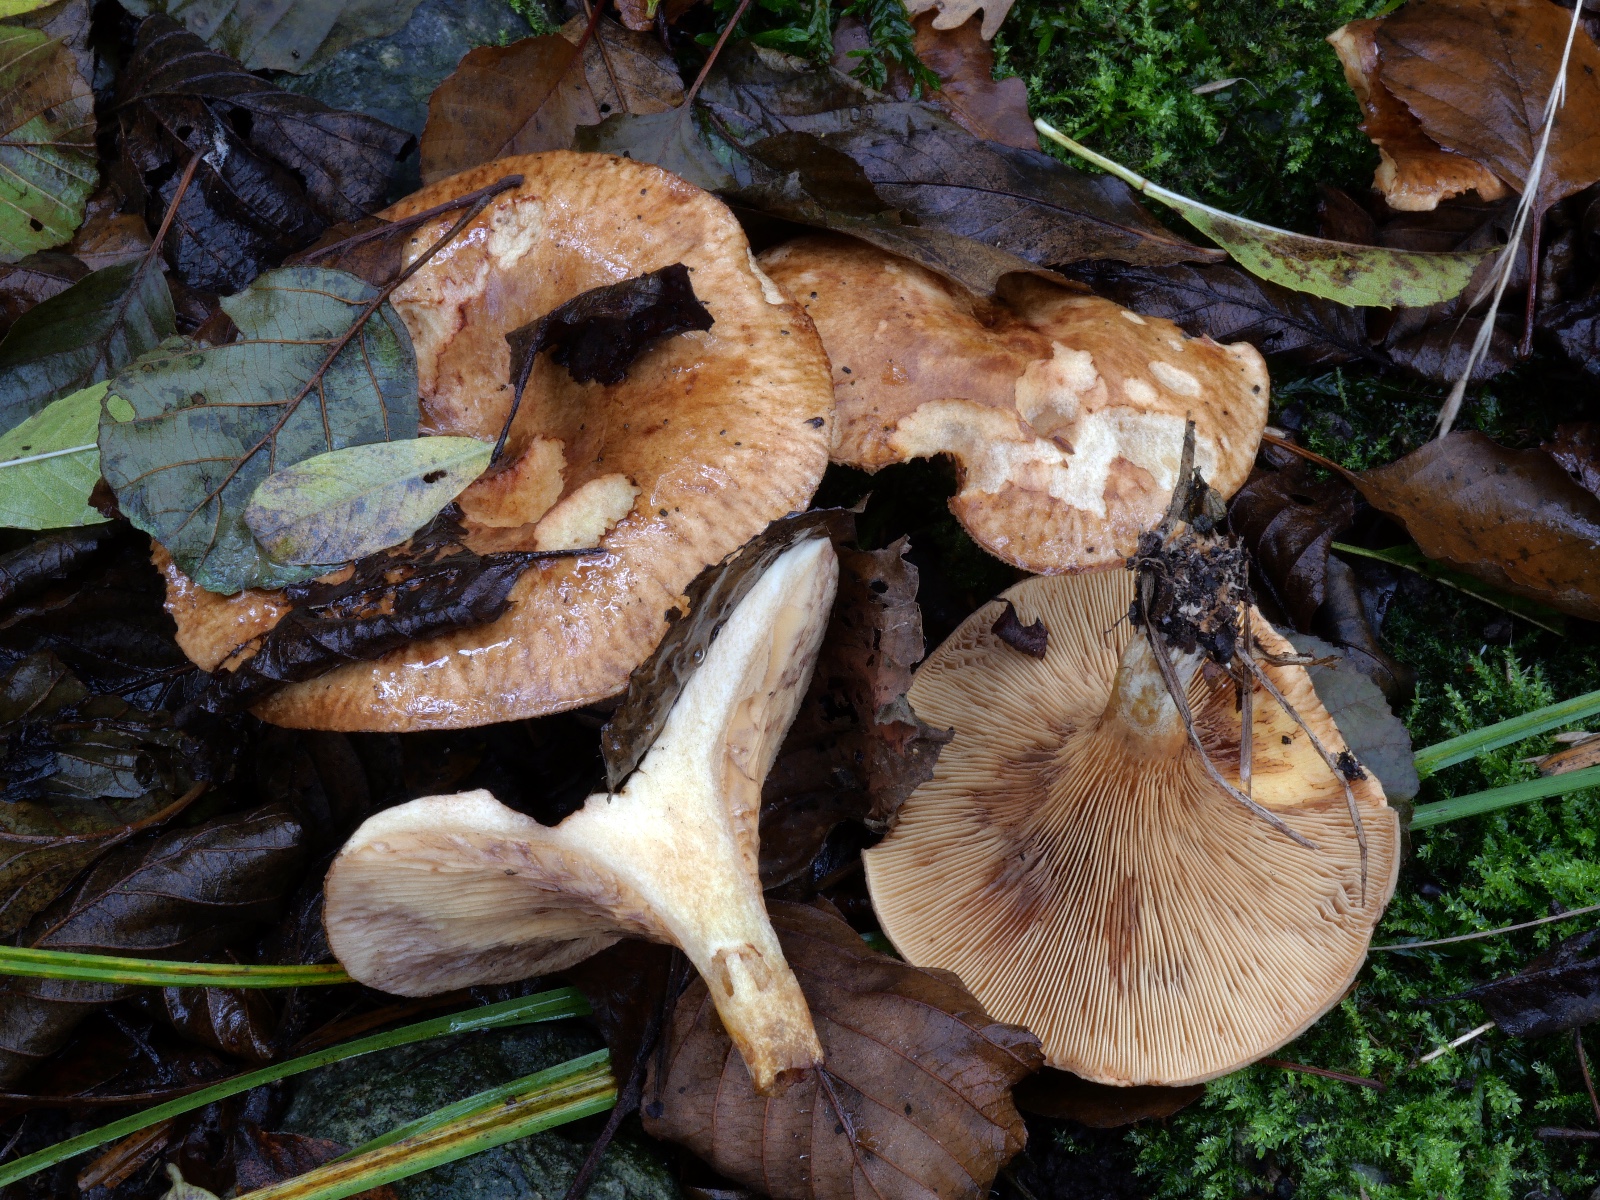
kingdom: Fungi
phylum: Basidiomycota
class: Agaricomycetes
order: Boletales
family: Paxillaceae
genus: Paxillus
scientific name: Paxillus cuprinus
